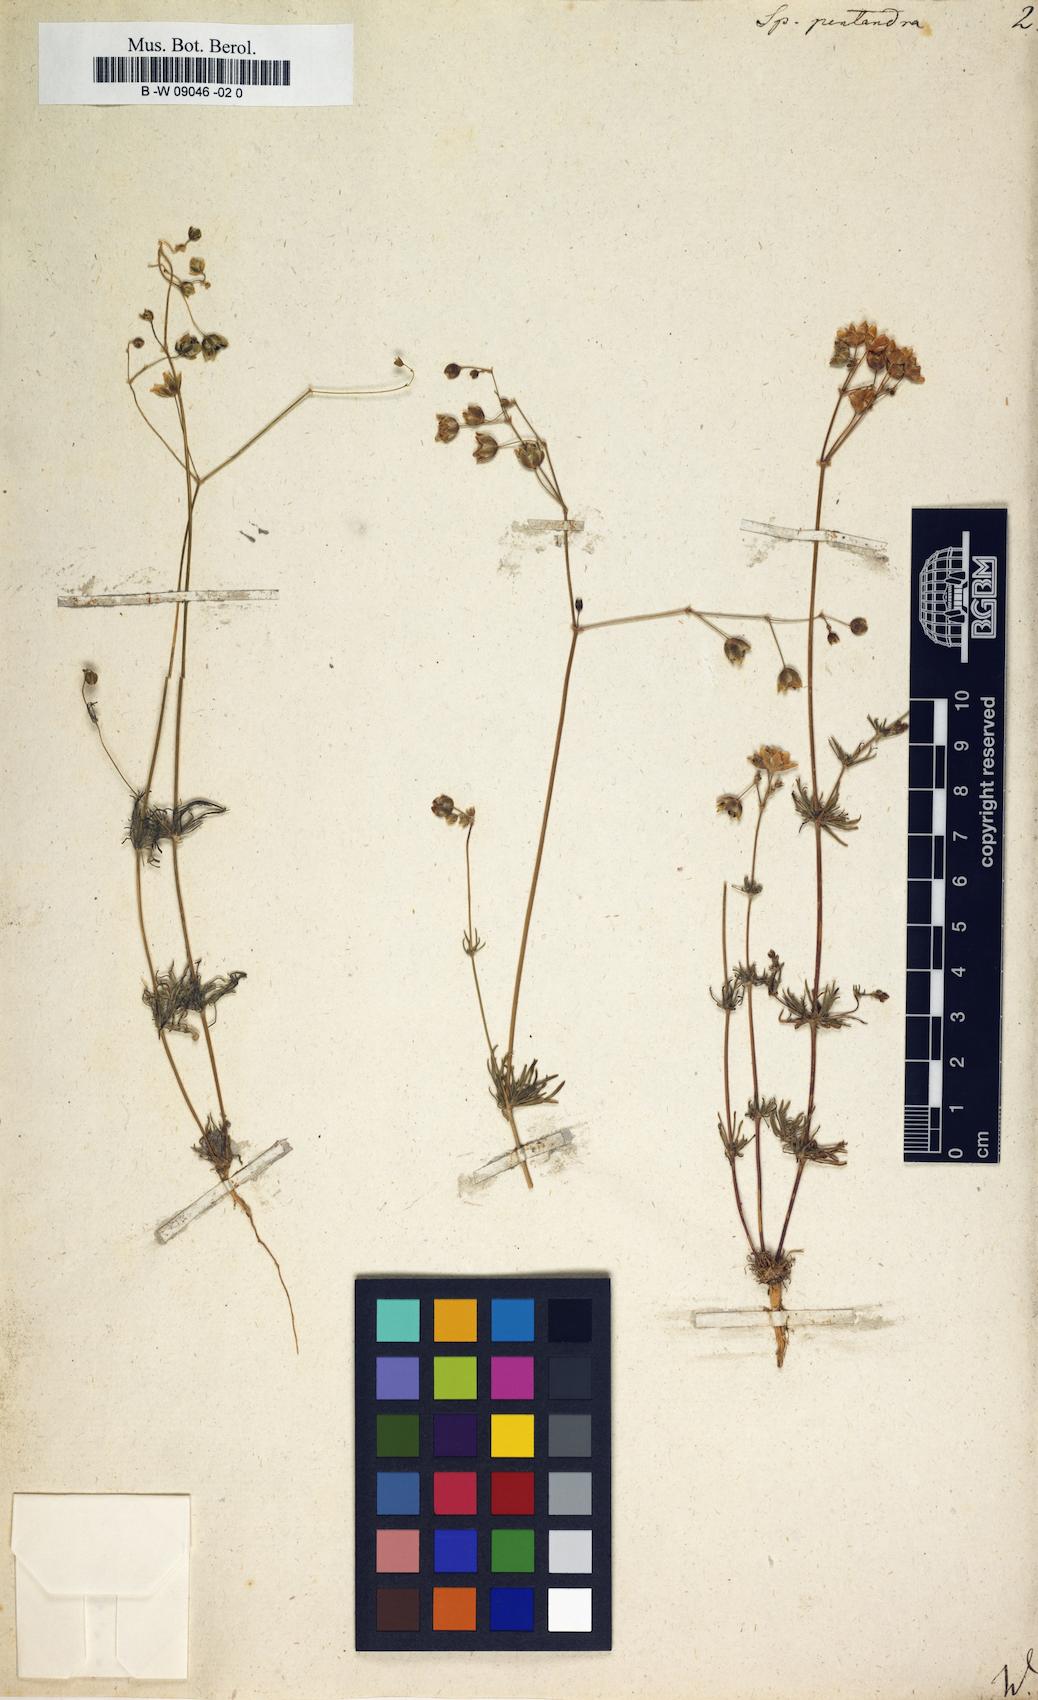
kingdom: Plantae
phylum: Tracheophyta
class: Magnoliopsida
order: Caryophyllales
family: Caryophyllaceae
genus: Spergula
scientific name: Spergula pentandra
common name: Wingstem spurry
